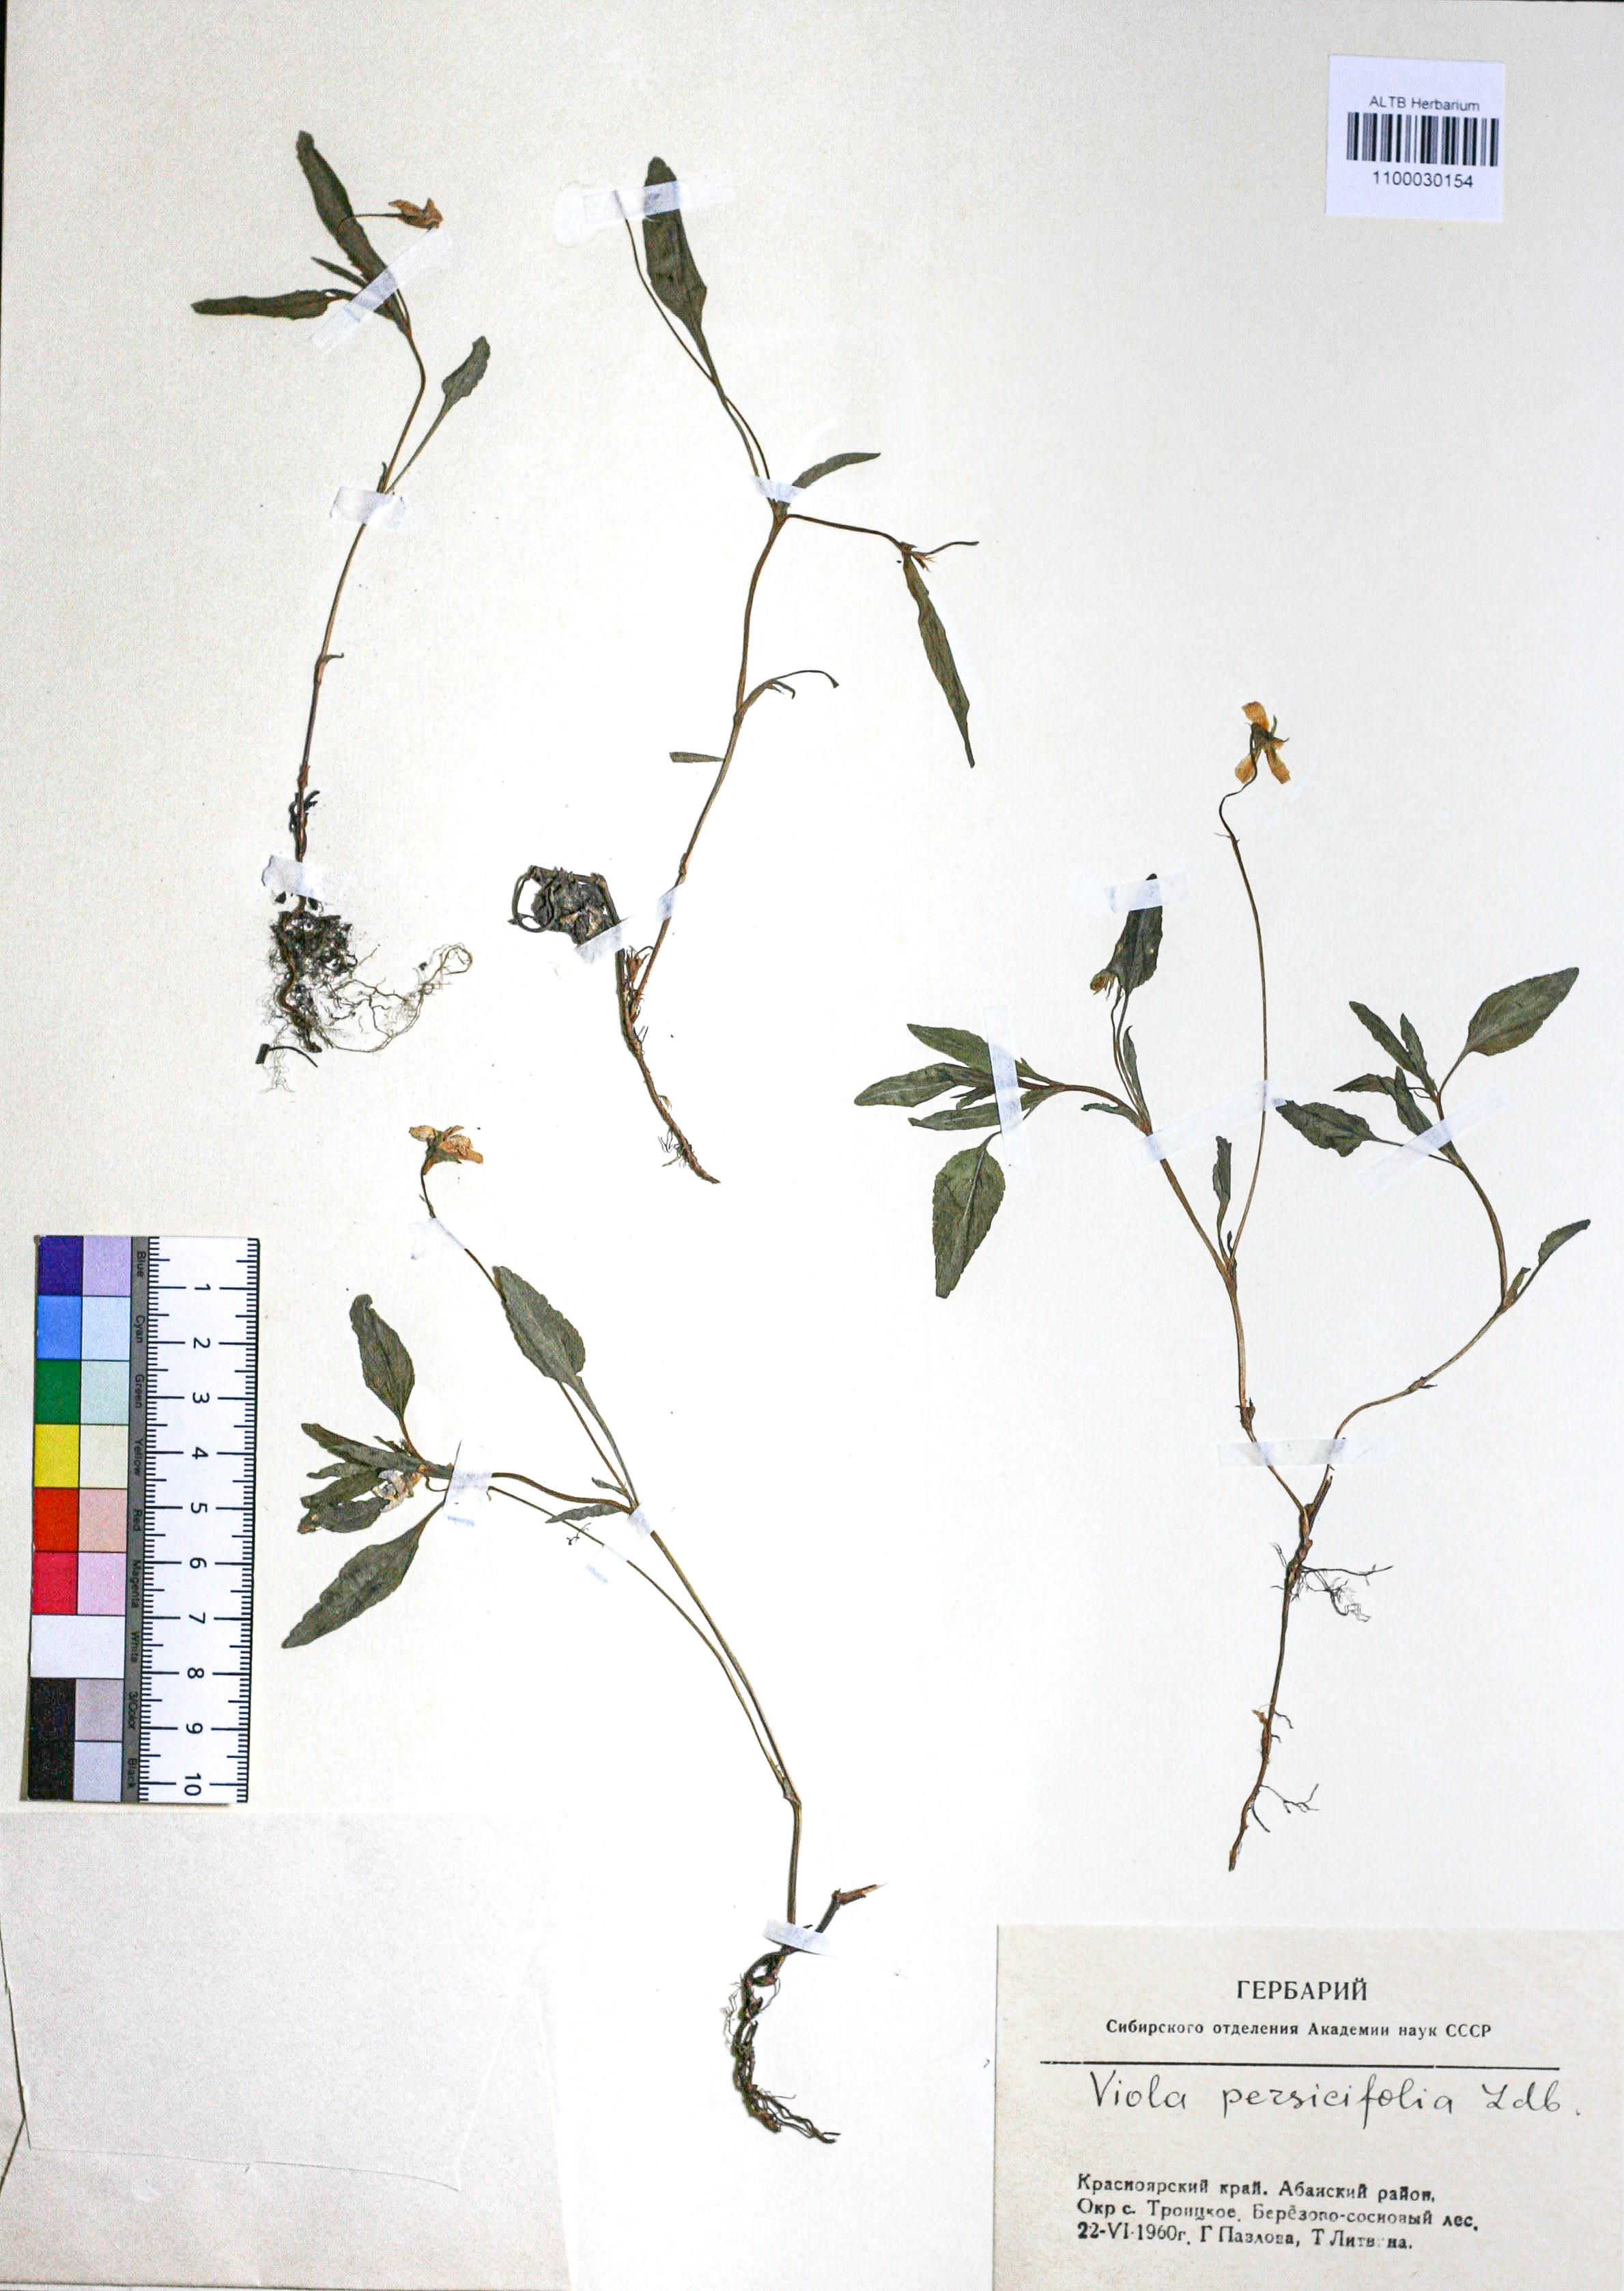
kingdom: Plantae
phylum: Tracheophyta
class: Magnoliopsida
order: Malpighiales
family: Violaceae
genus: Viola
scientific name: Viola stagnina
